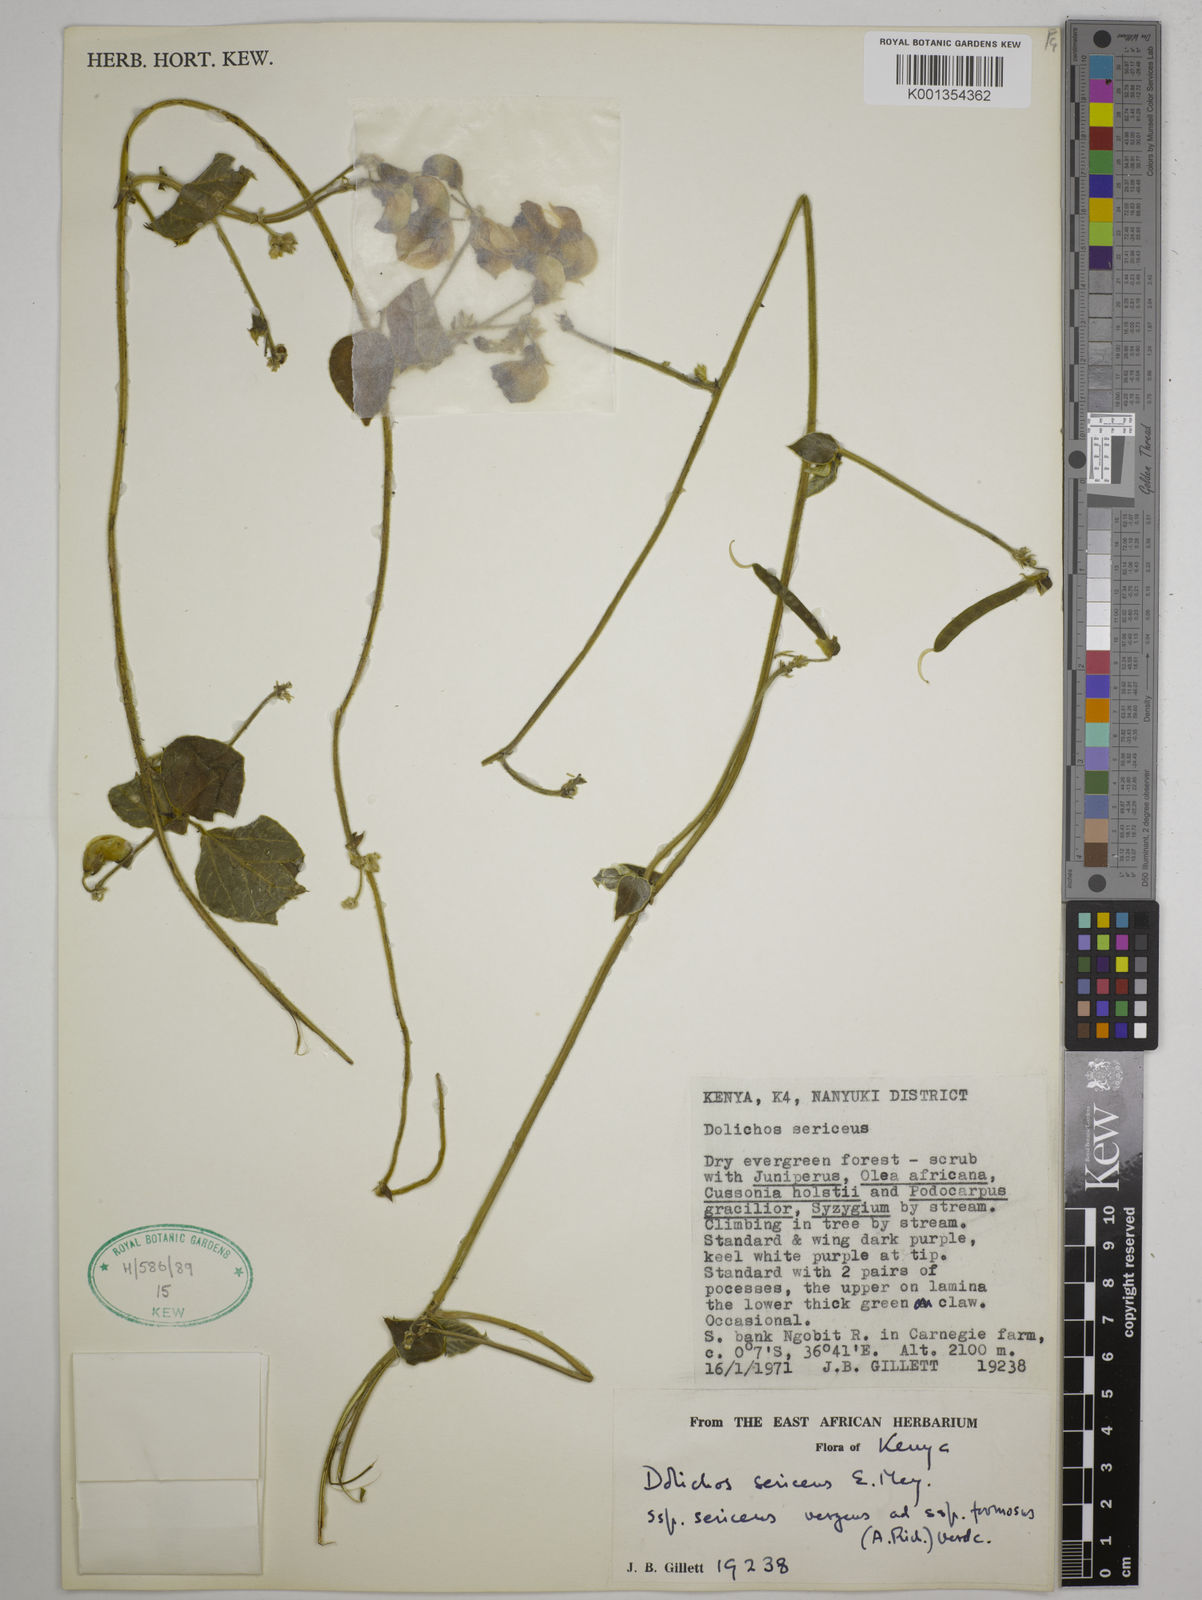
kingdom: Plantae
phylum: Tracheophyta
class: Magnoliopsida
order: Fabales
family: Fabaceae
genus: Dolichos
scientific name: Dolichos
